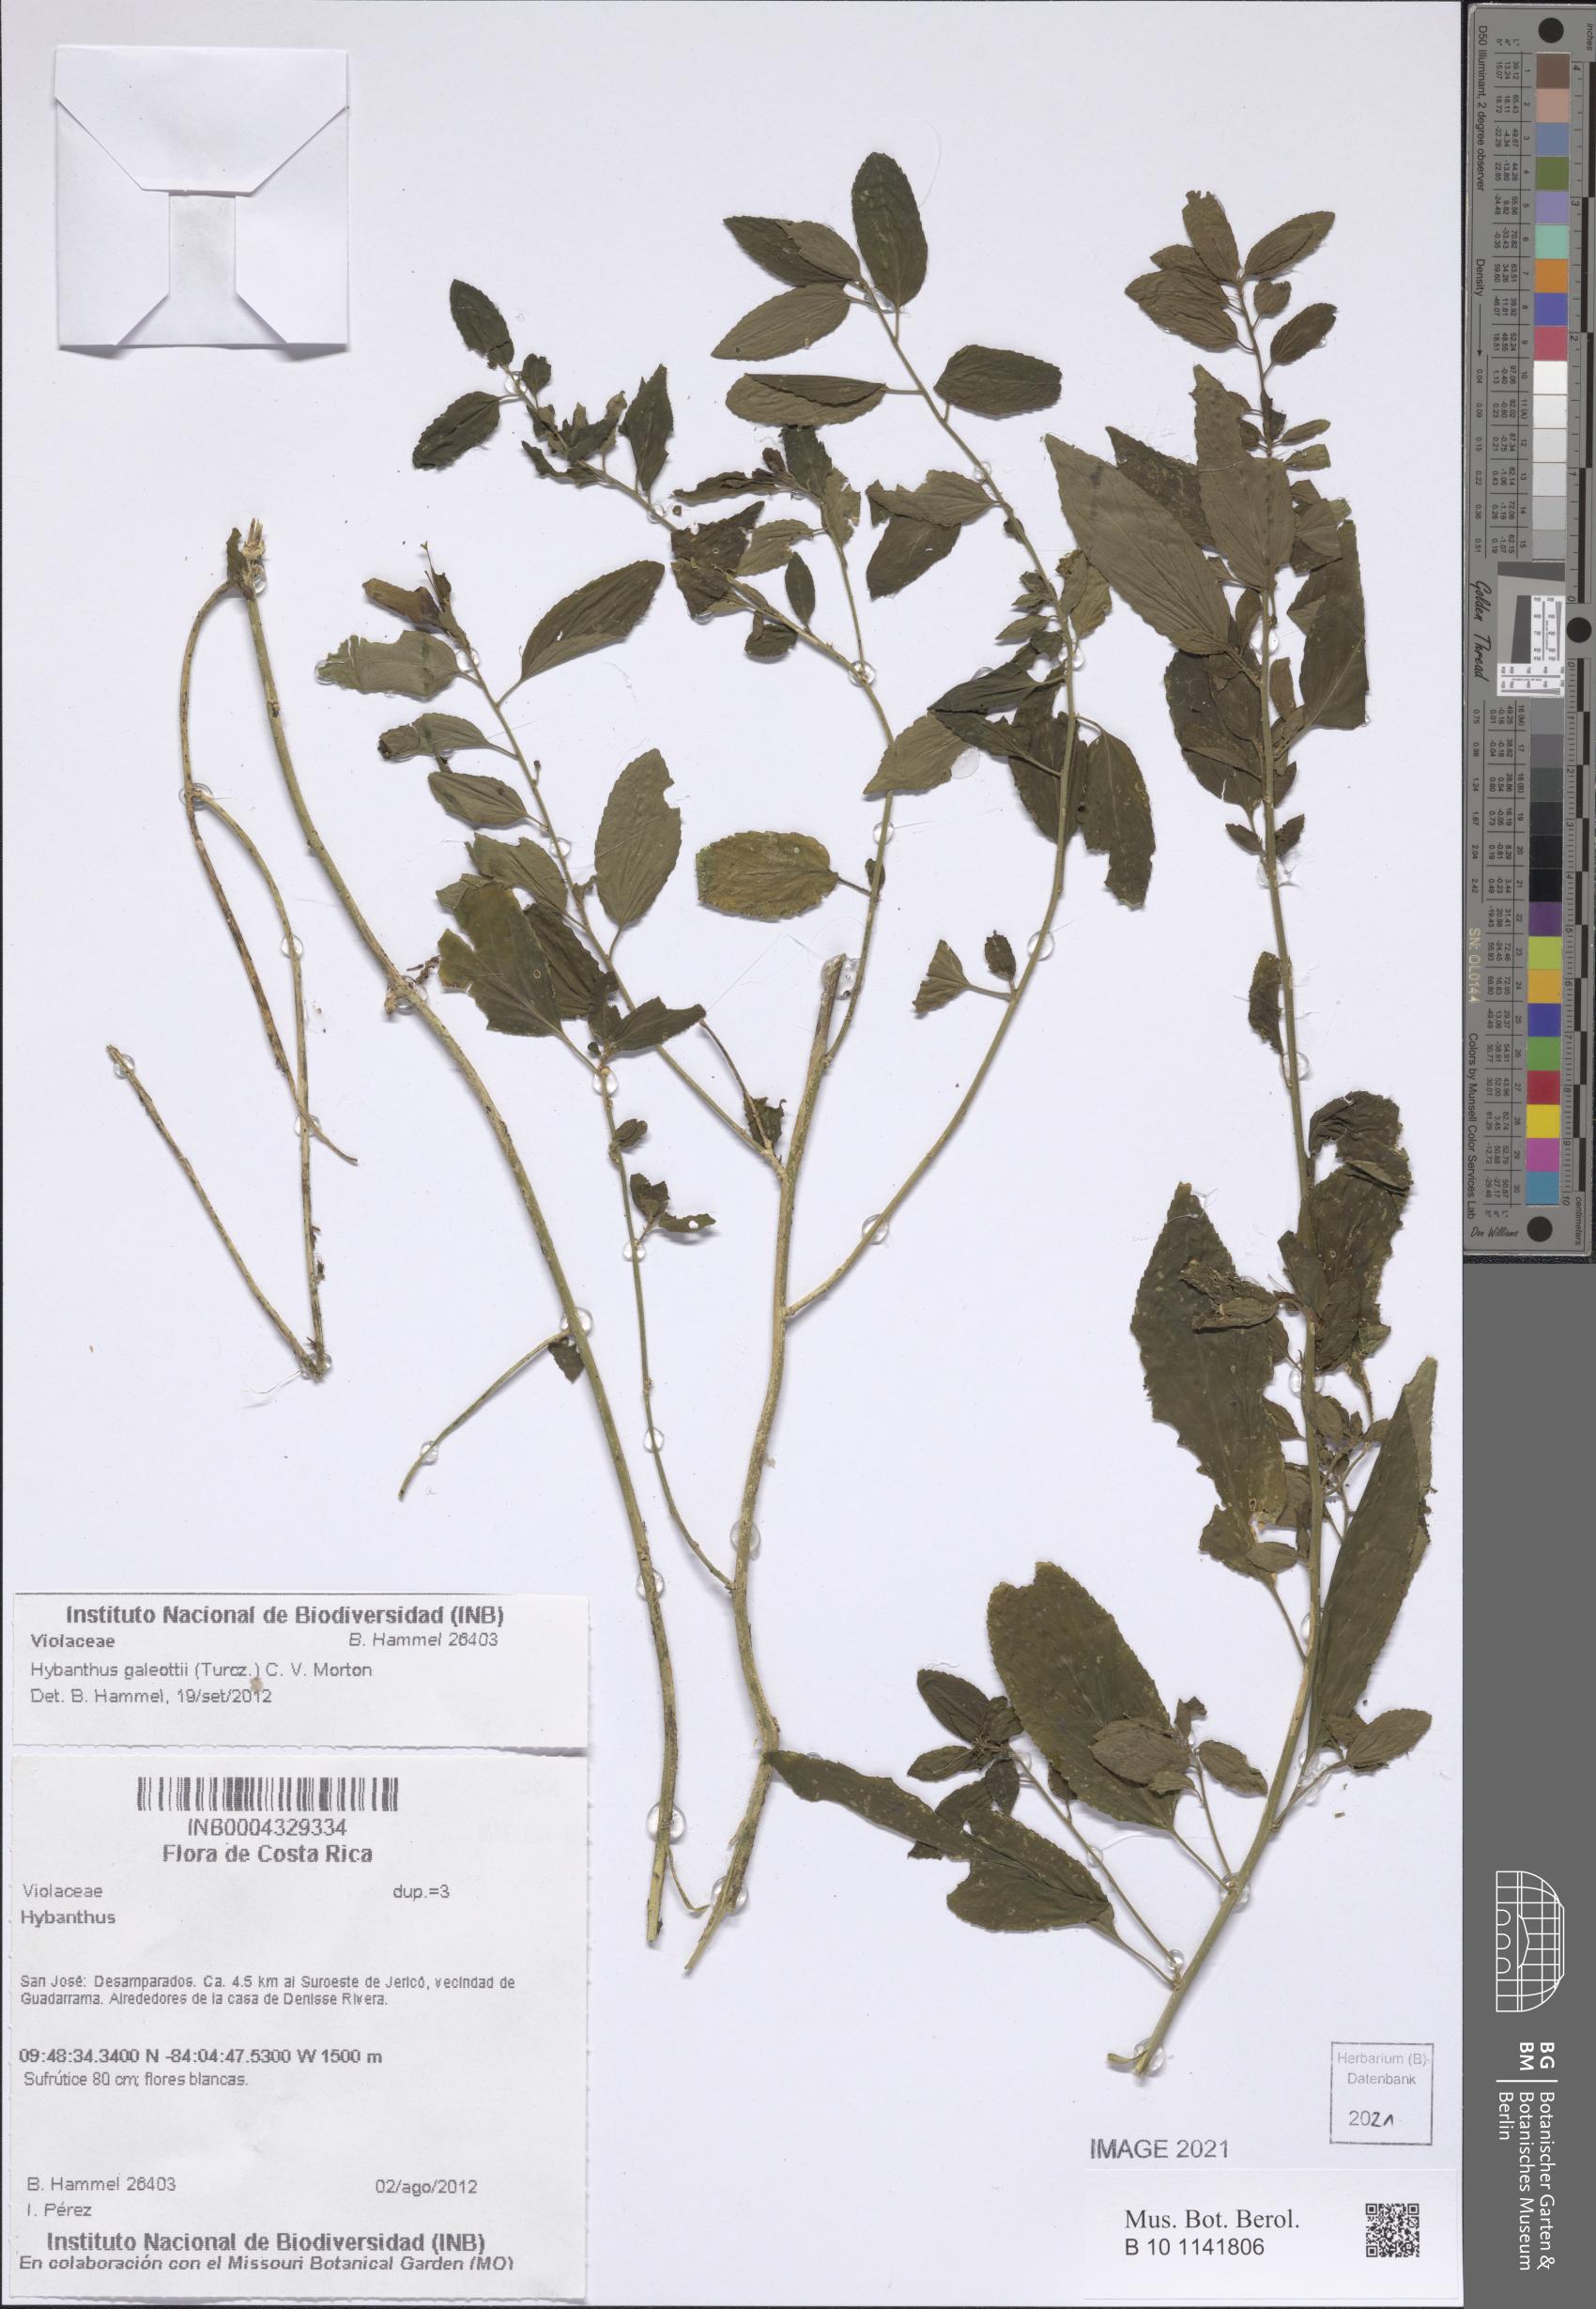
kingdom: Plantae
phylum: Tracheophyta
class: Magnoliopsida
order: Malpighiales
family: Violaceae
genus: Hybanthus
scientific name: Hybanthus galeottii
